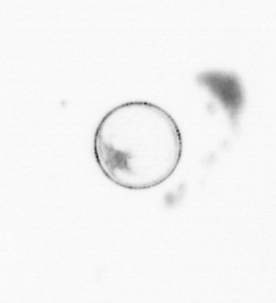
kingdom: Chromista
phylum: Myzozoa
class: Dinophyceae
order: Noctilucales
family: Noctilucaceae
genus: Noctiluca
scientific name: Noctiluca scintillans
